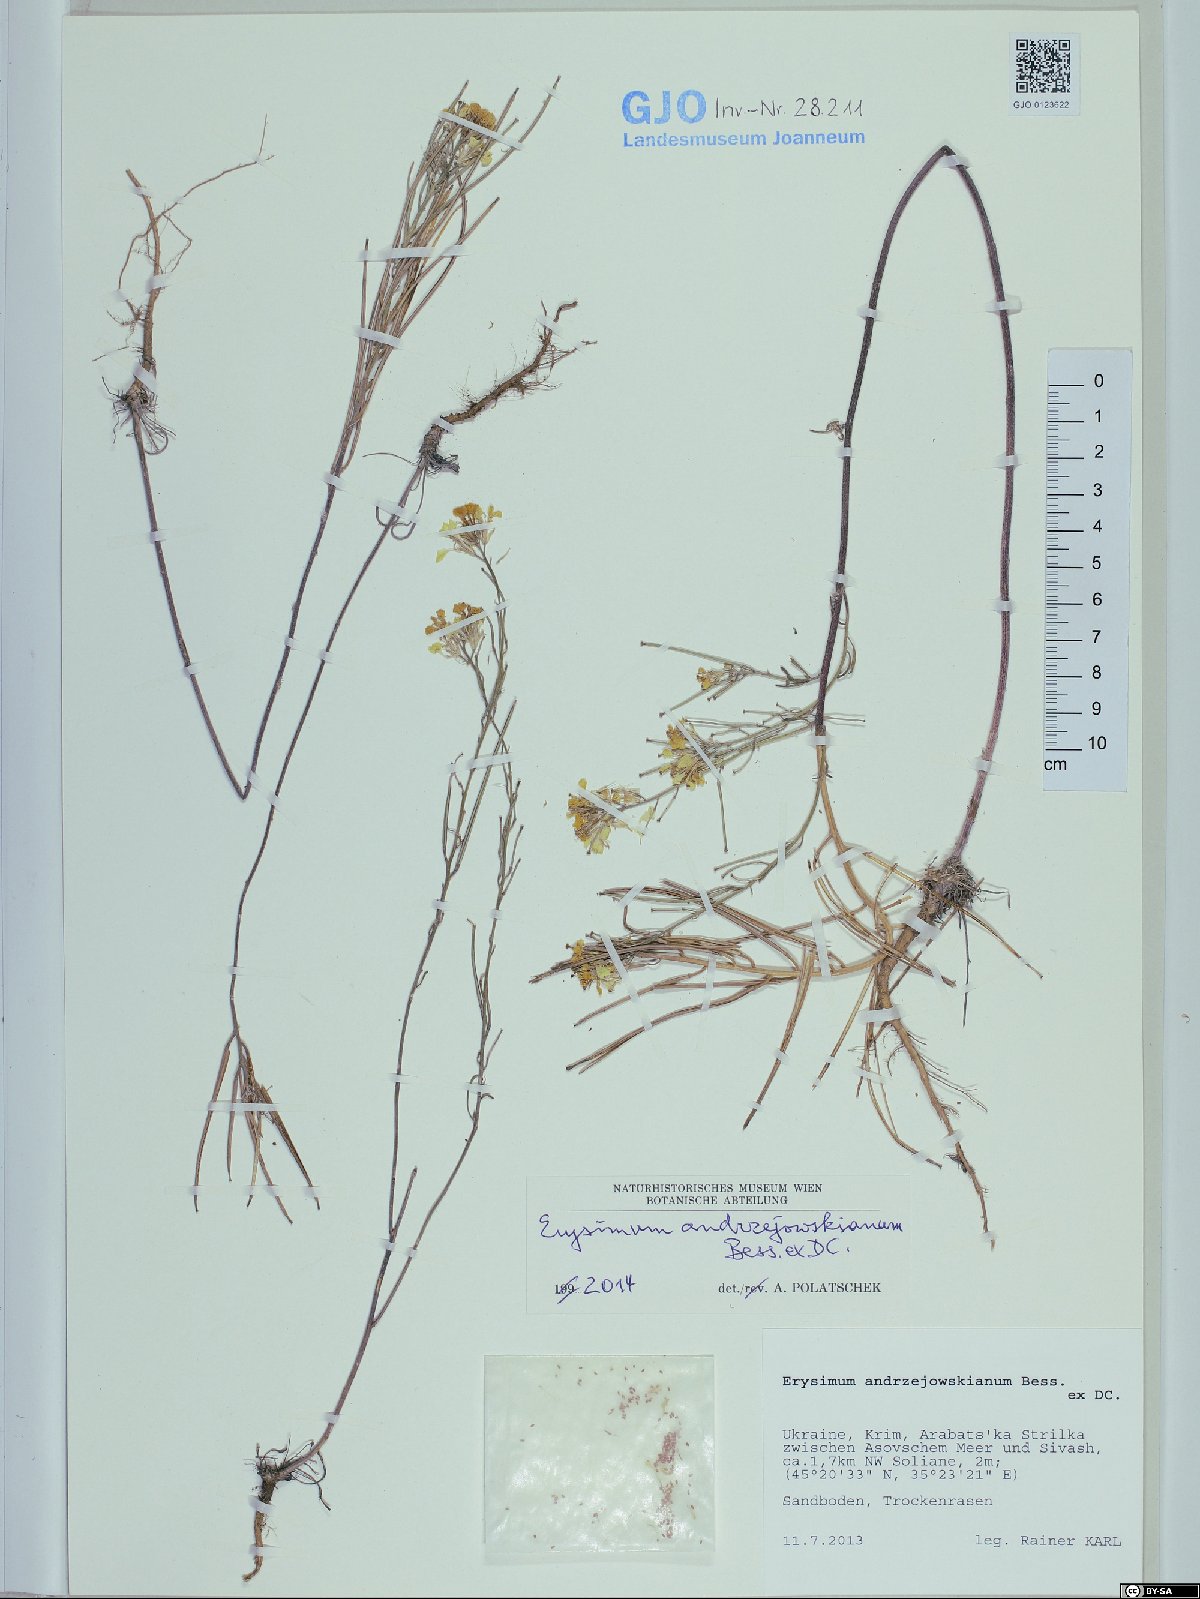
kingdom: Plantae
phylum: Tracheophyta
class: Magnoliopsida
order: Brassicales
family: Brassicaceae
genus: Erysimum
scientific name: Erysimum andrzejowskianum
